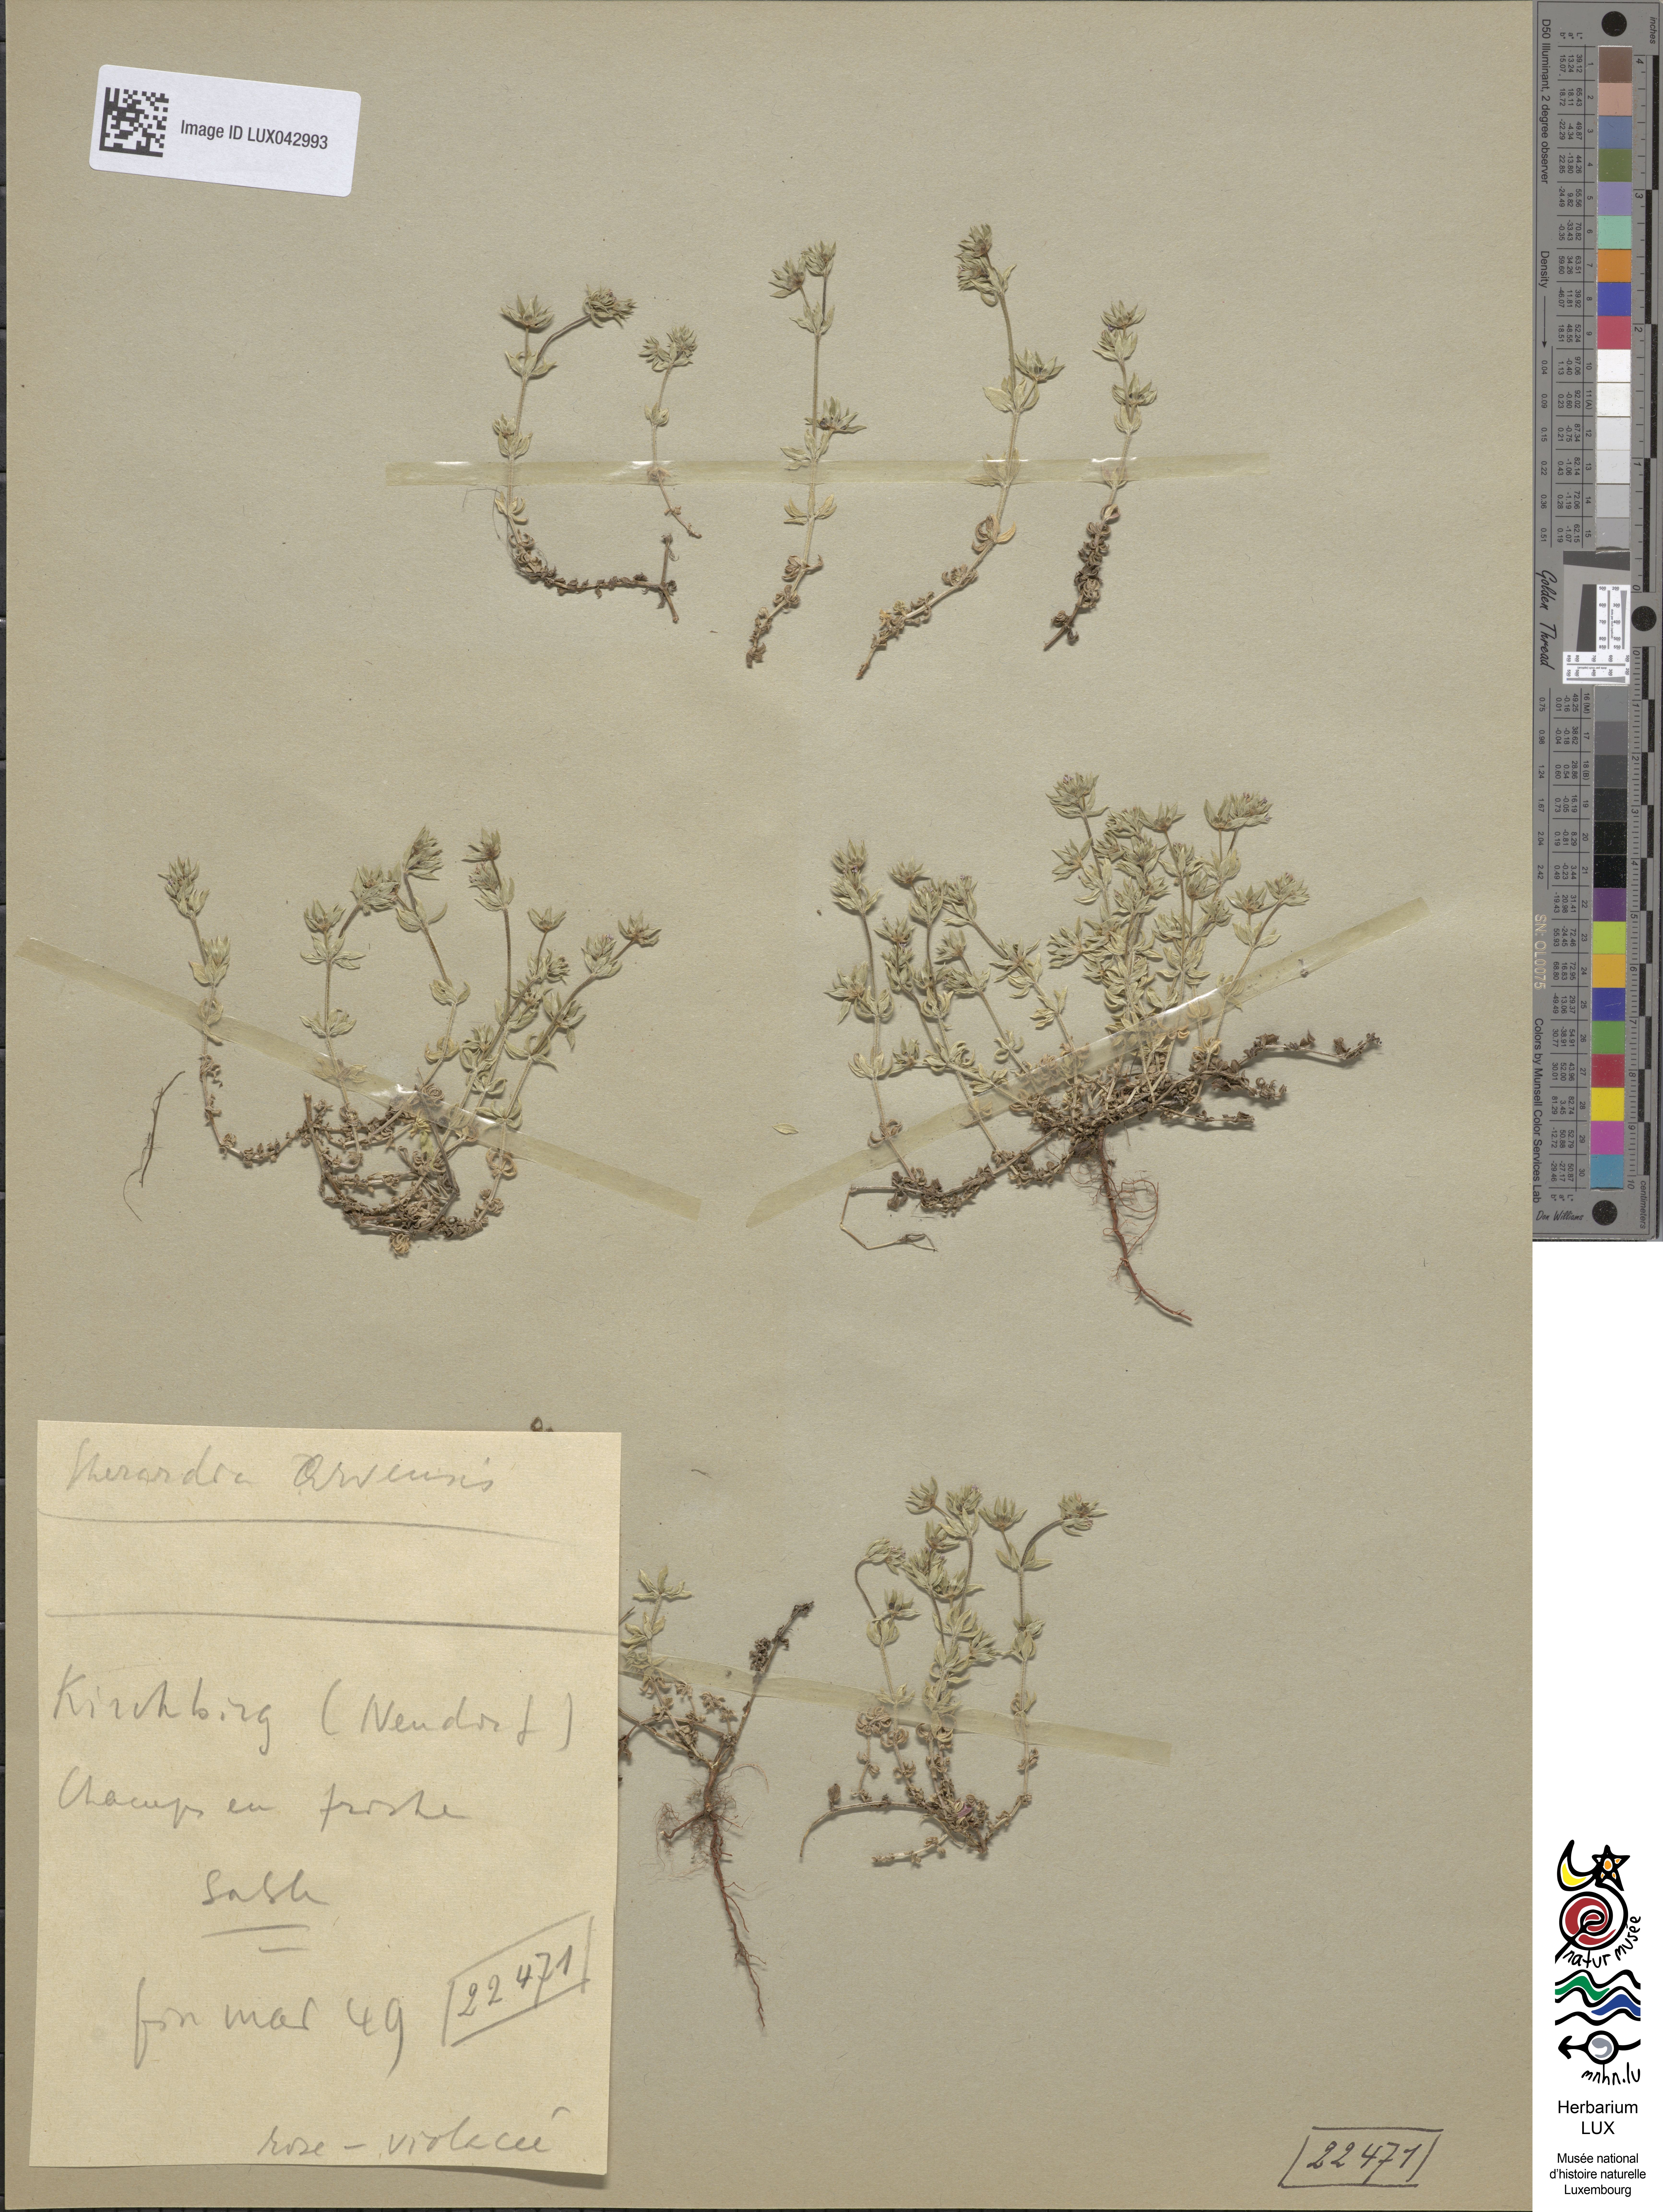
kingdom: Plantae
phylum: Tracheophyta
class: Magnoliopsida
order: Gentianales
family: Rubiaceae
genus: Sherardia
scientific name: Sherardia arvensis
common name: Field madder
